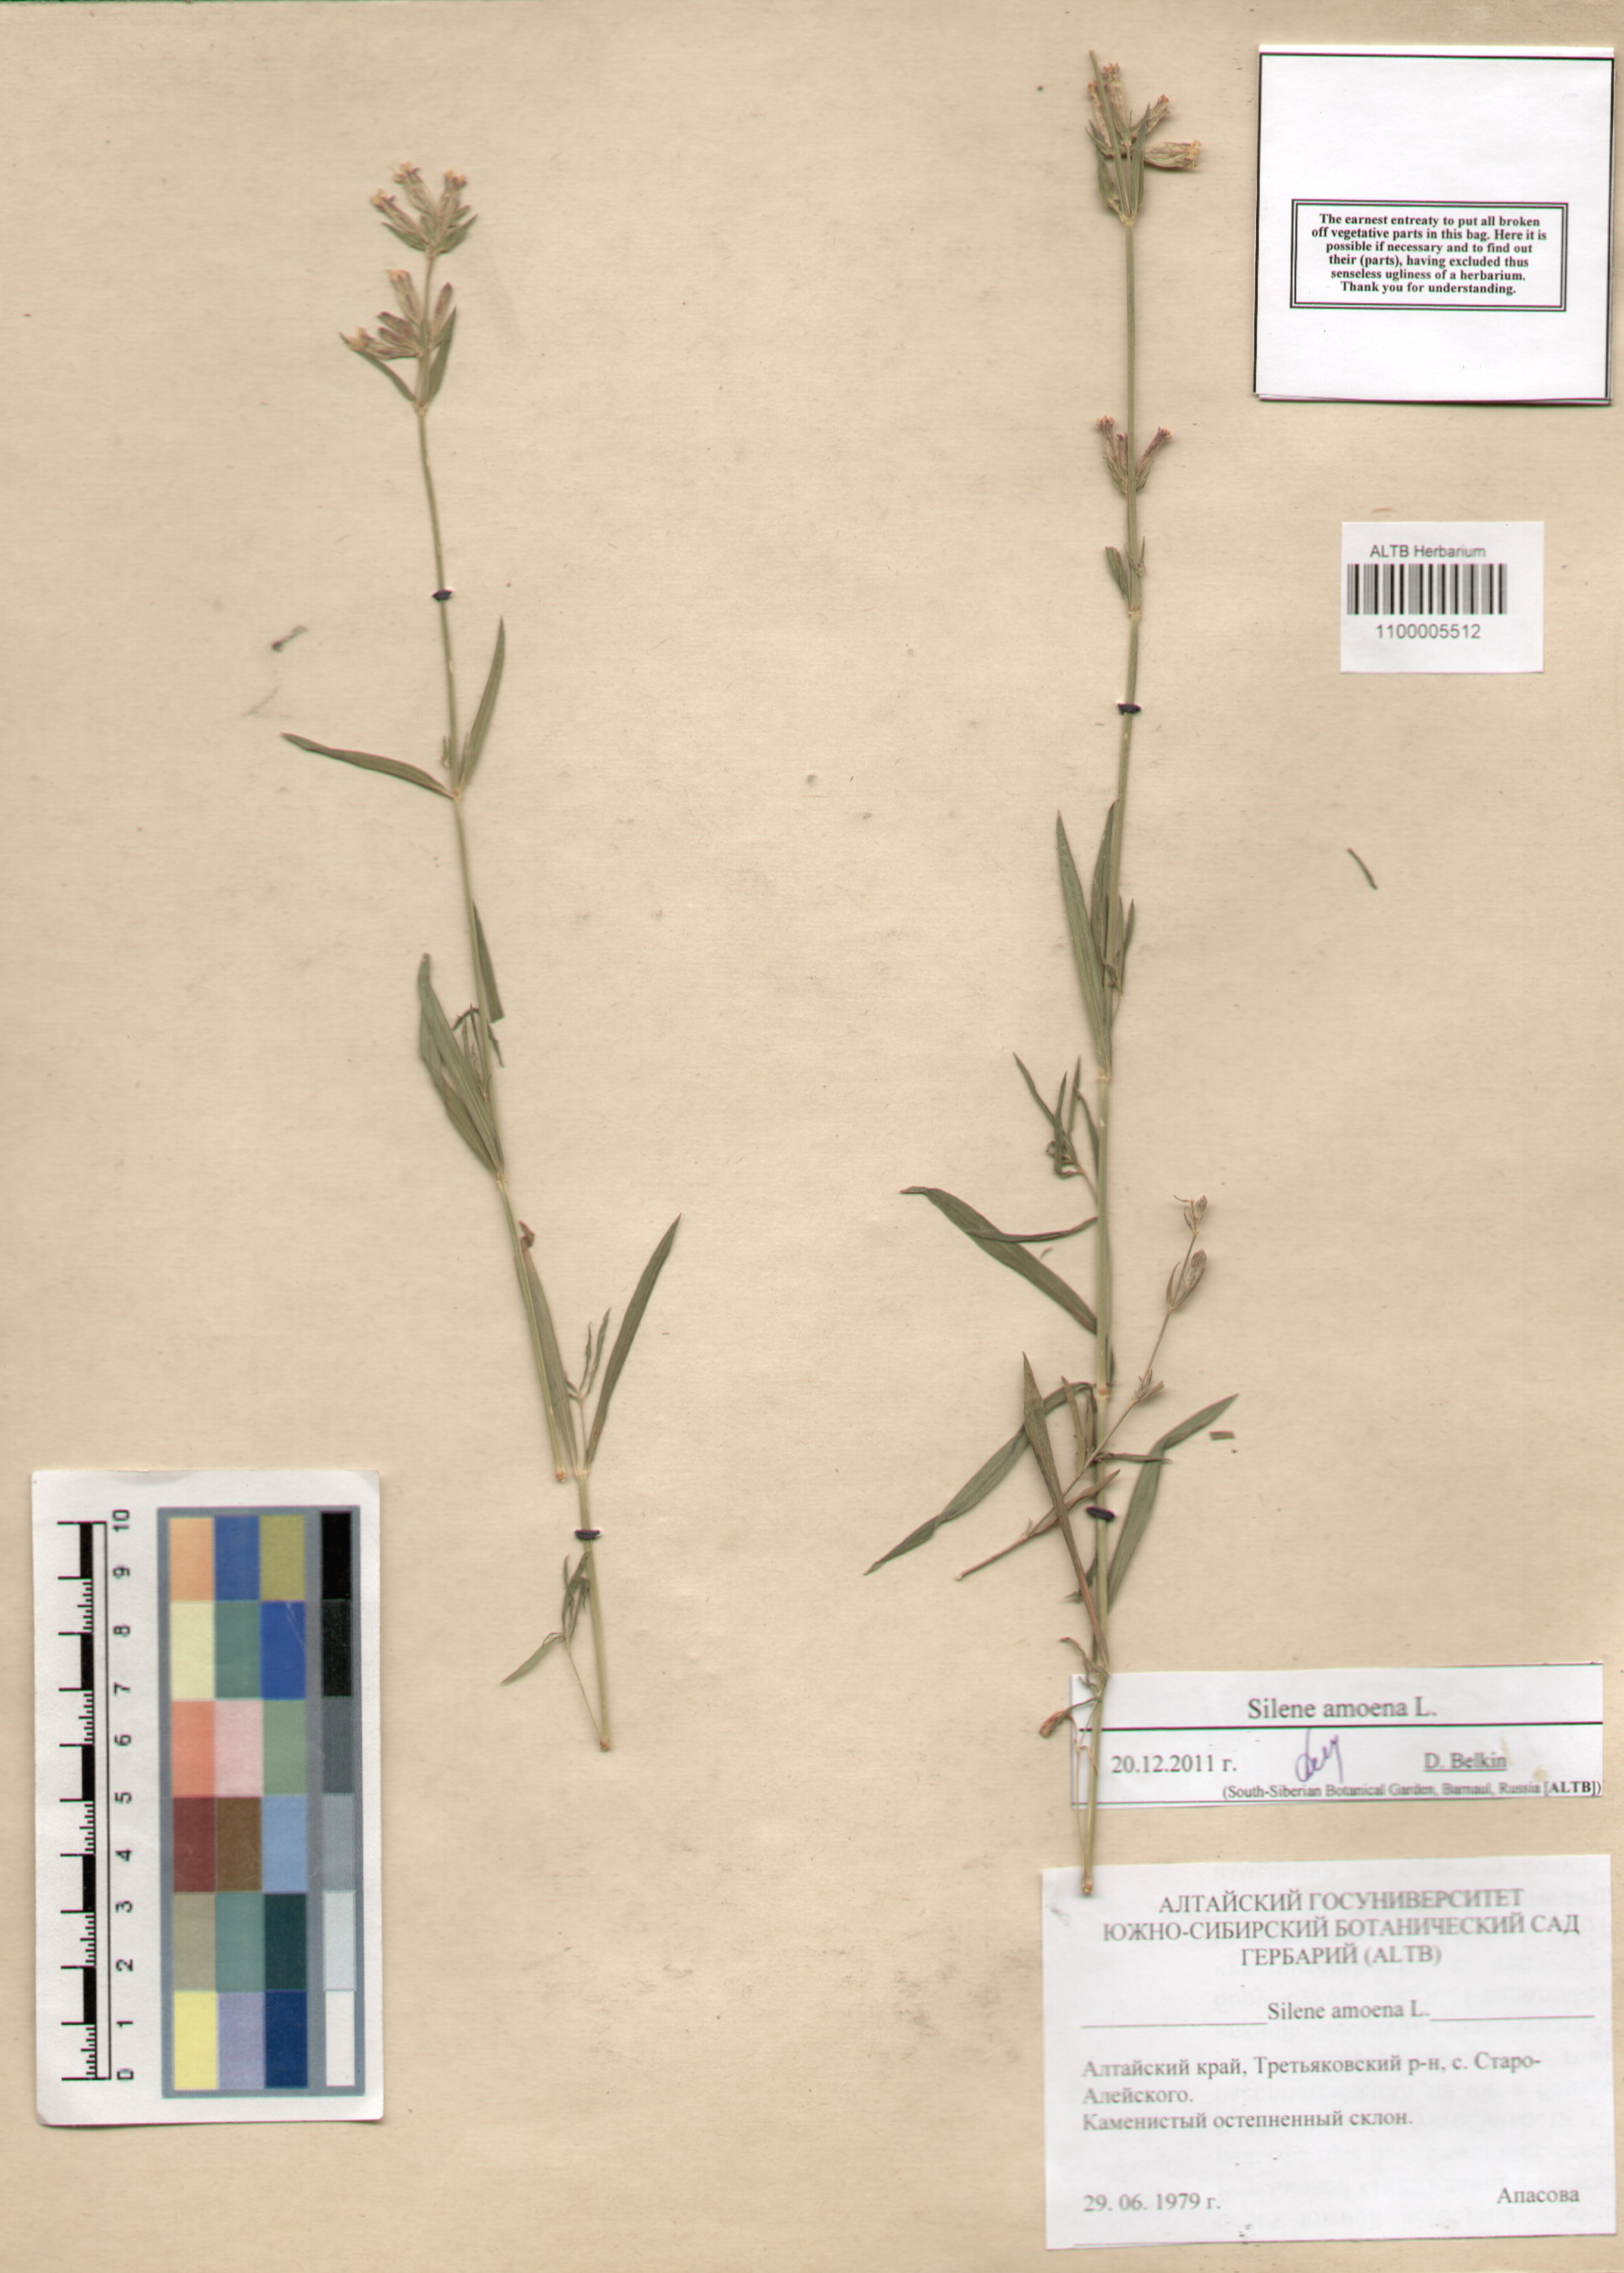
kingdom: Plantae
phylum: Tracheophyta
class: Magnoliopsida
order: Caryophyllales
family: Caryophyllaceae
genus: Silene
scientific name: Silene amoena
